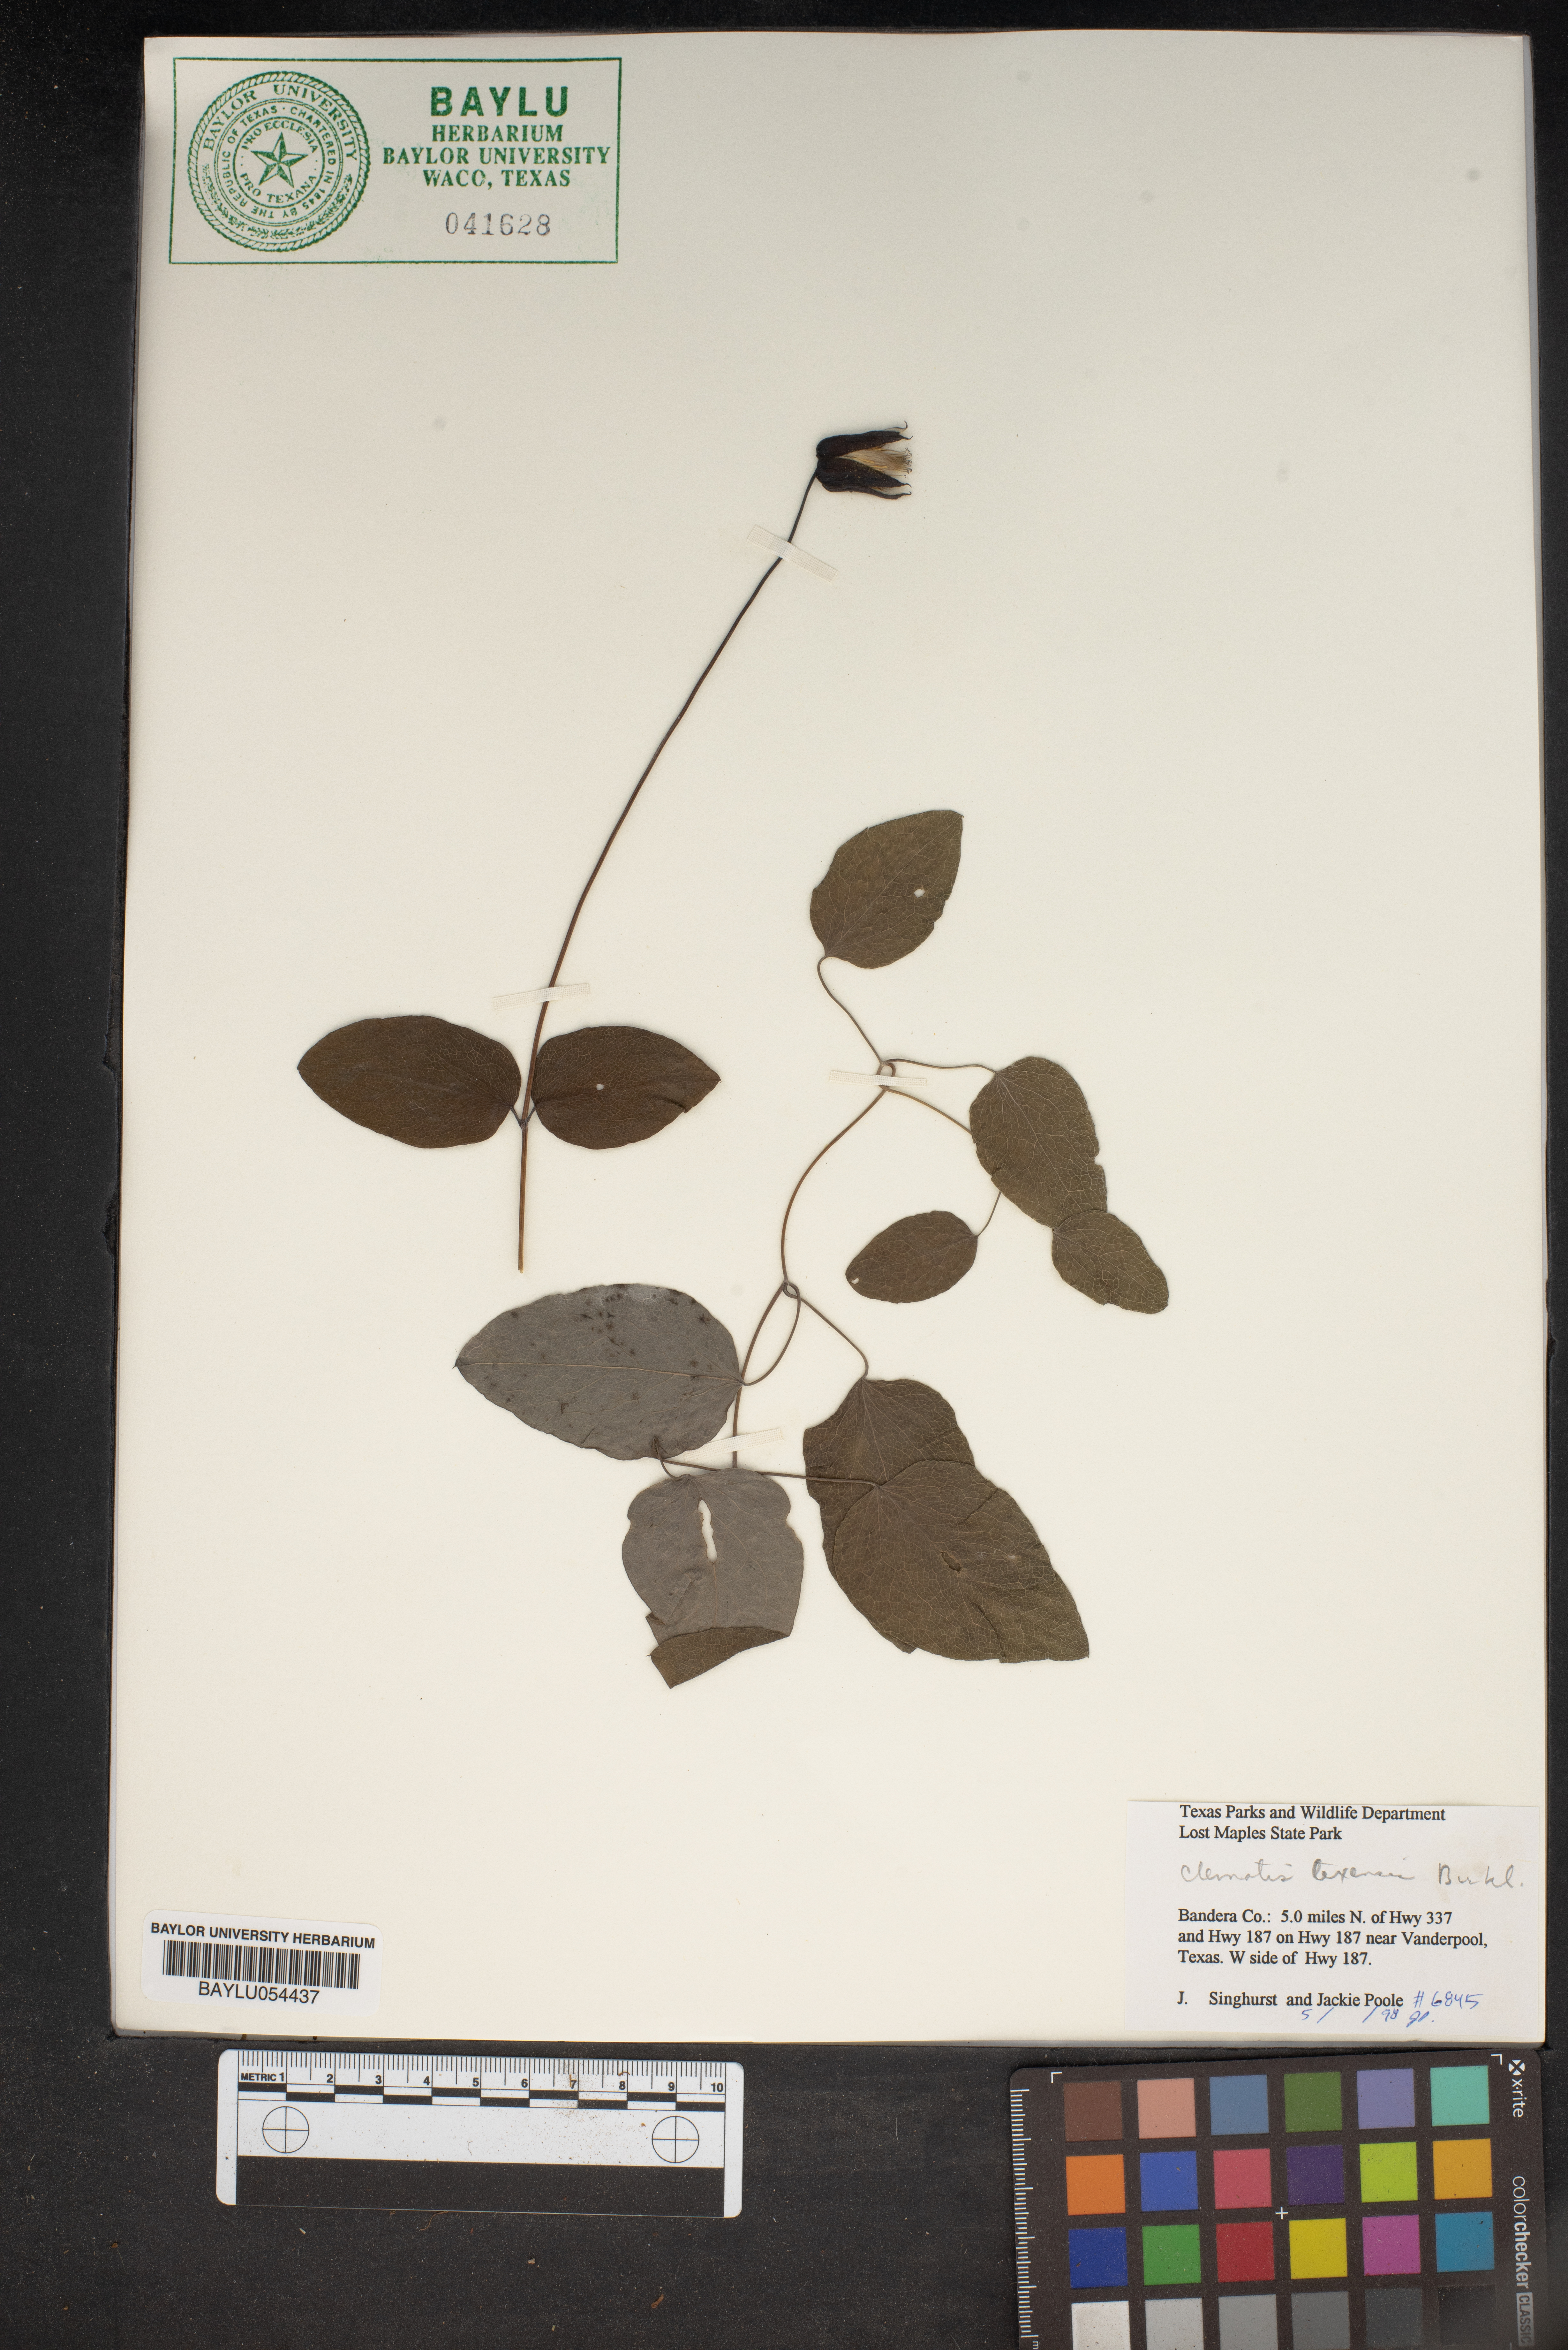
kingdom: Plantae
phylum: Tracheophyta
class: Magnoliopsida
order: Ranunculales
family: Ranunculaceae
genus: Clematis
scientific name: Clematis texensis
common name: Crimson clematis
